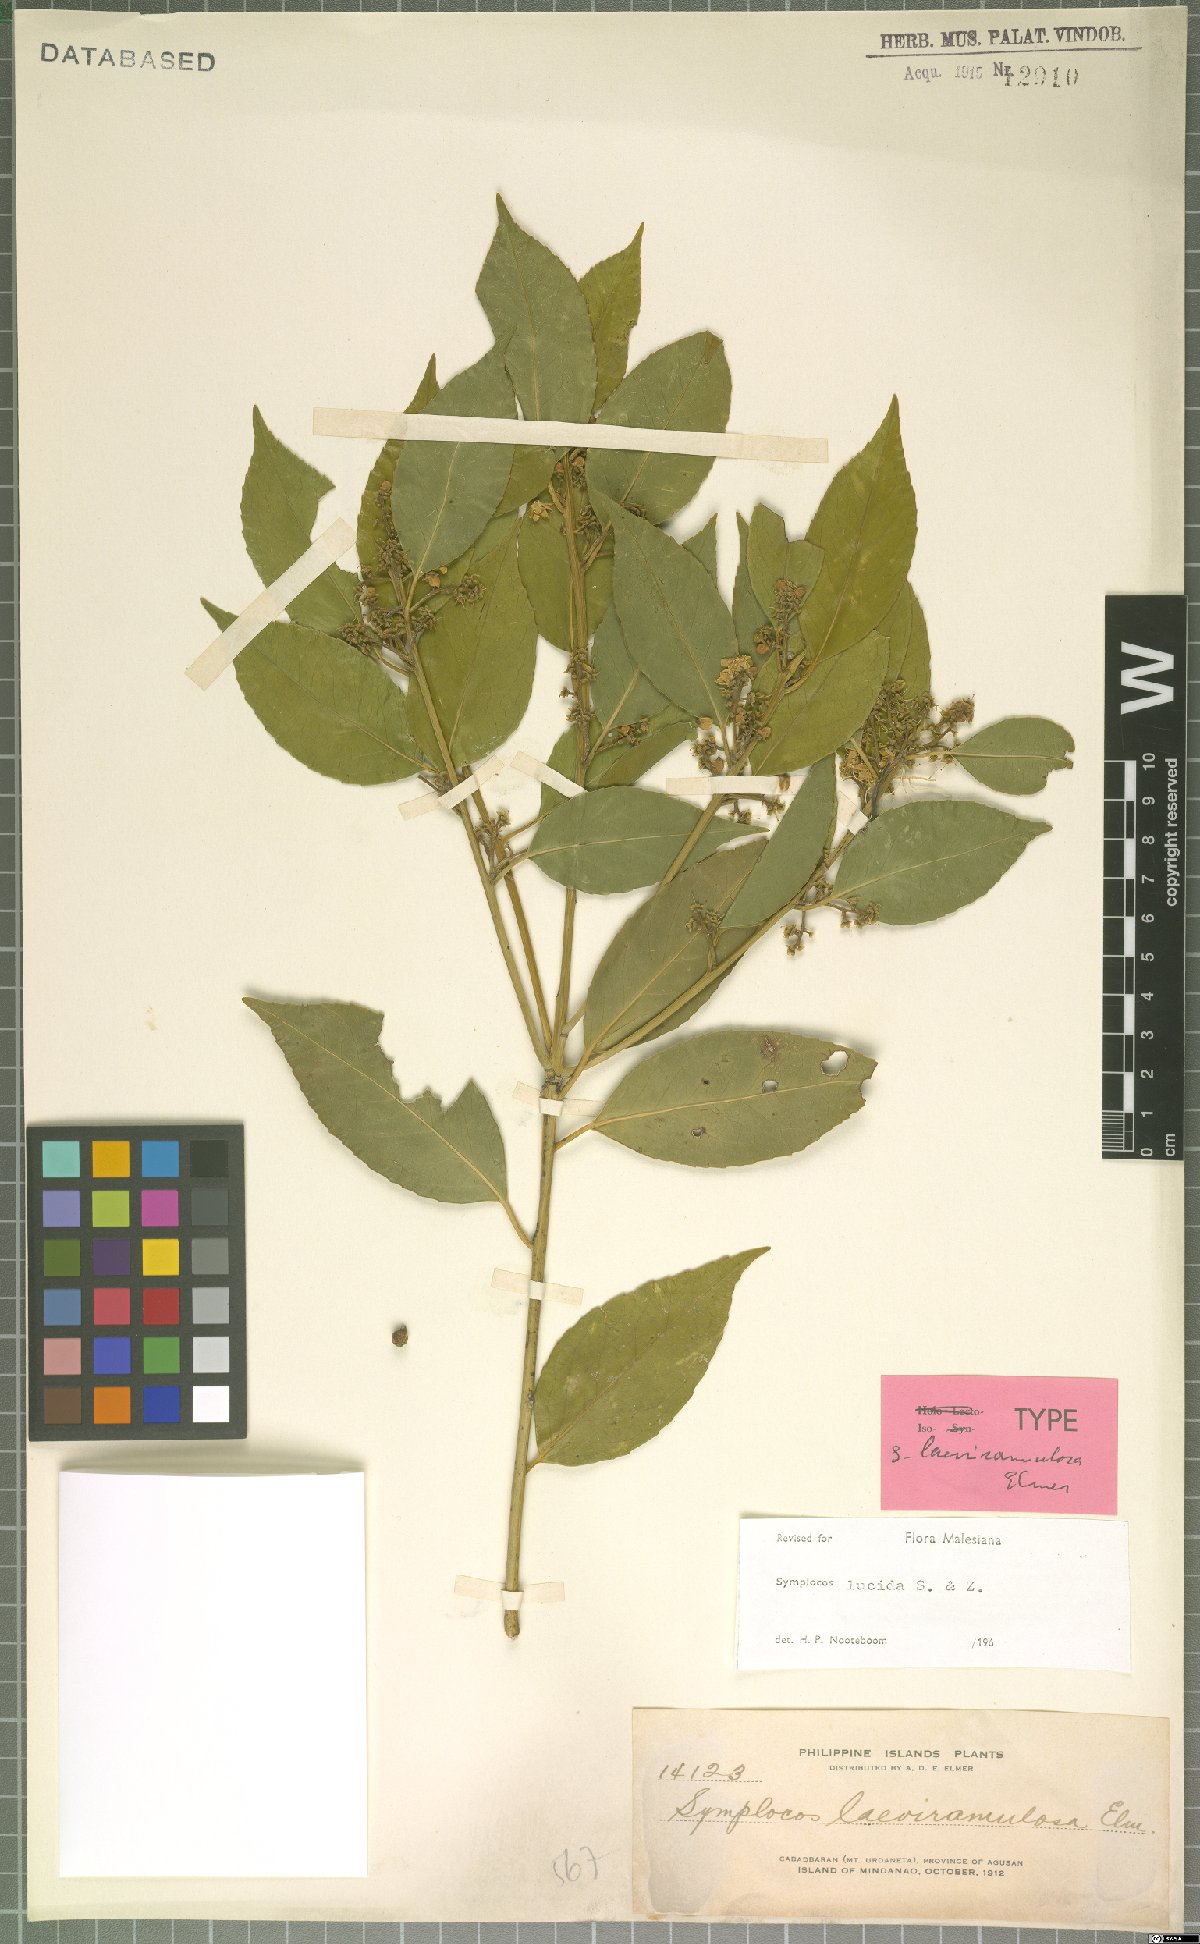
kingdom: Plantae
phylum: Tracheophyta
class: Magnoliopsida
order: Ericales
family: Symplocaceae
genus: Symplocos
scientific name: Symplocos nakaharae
